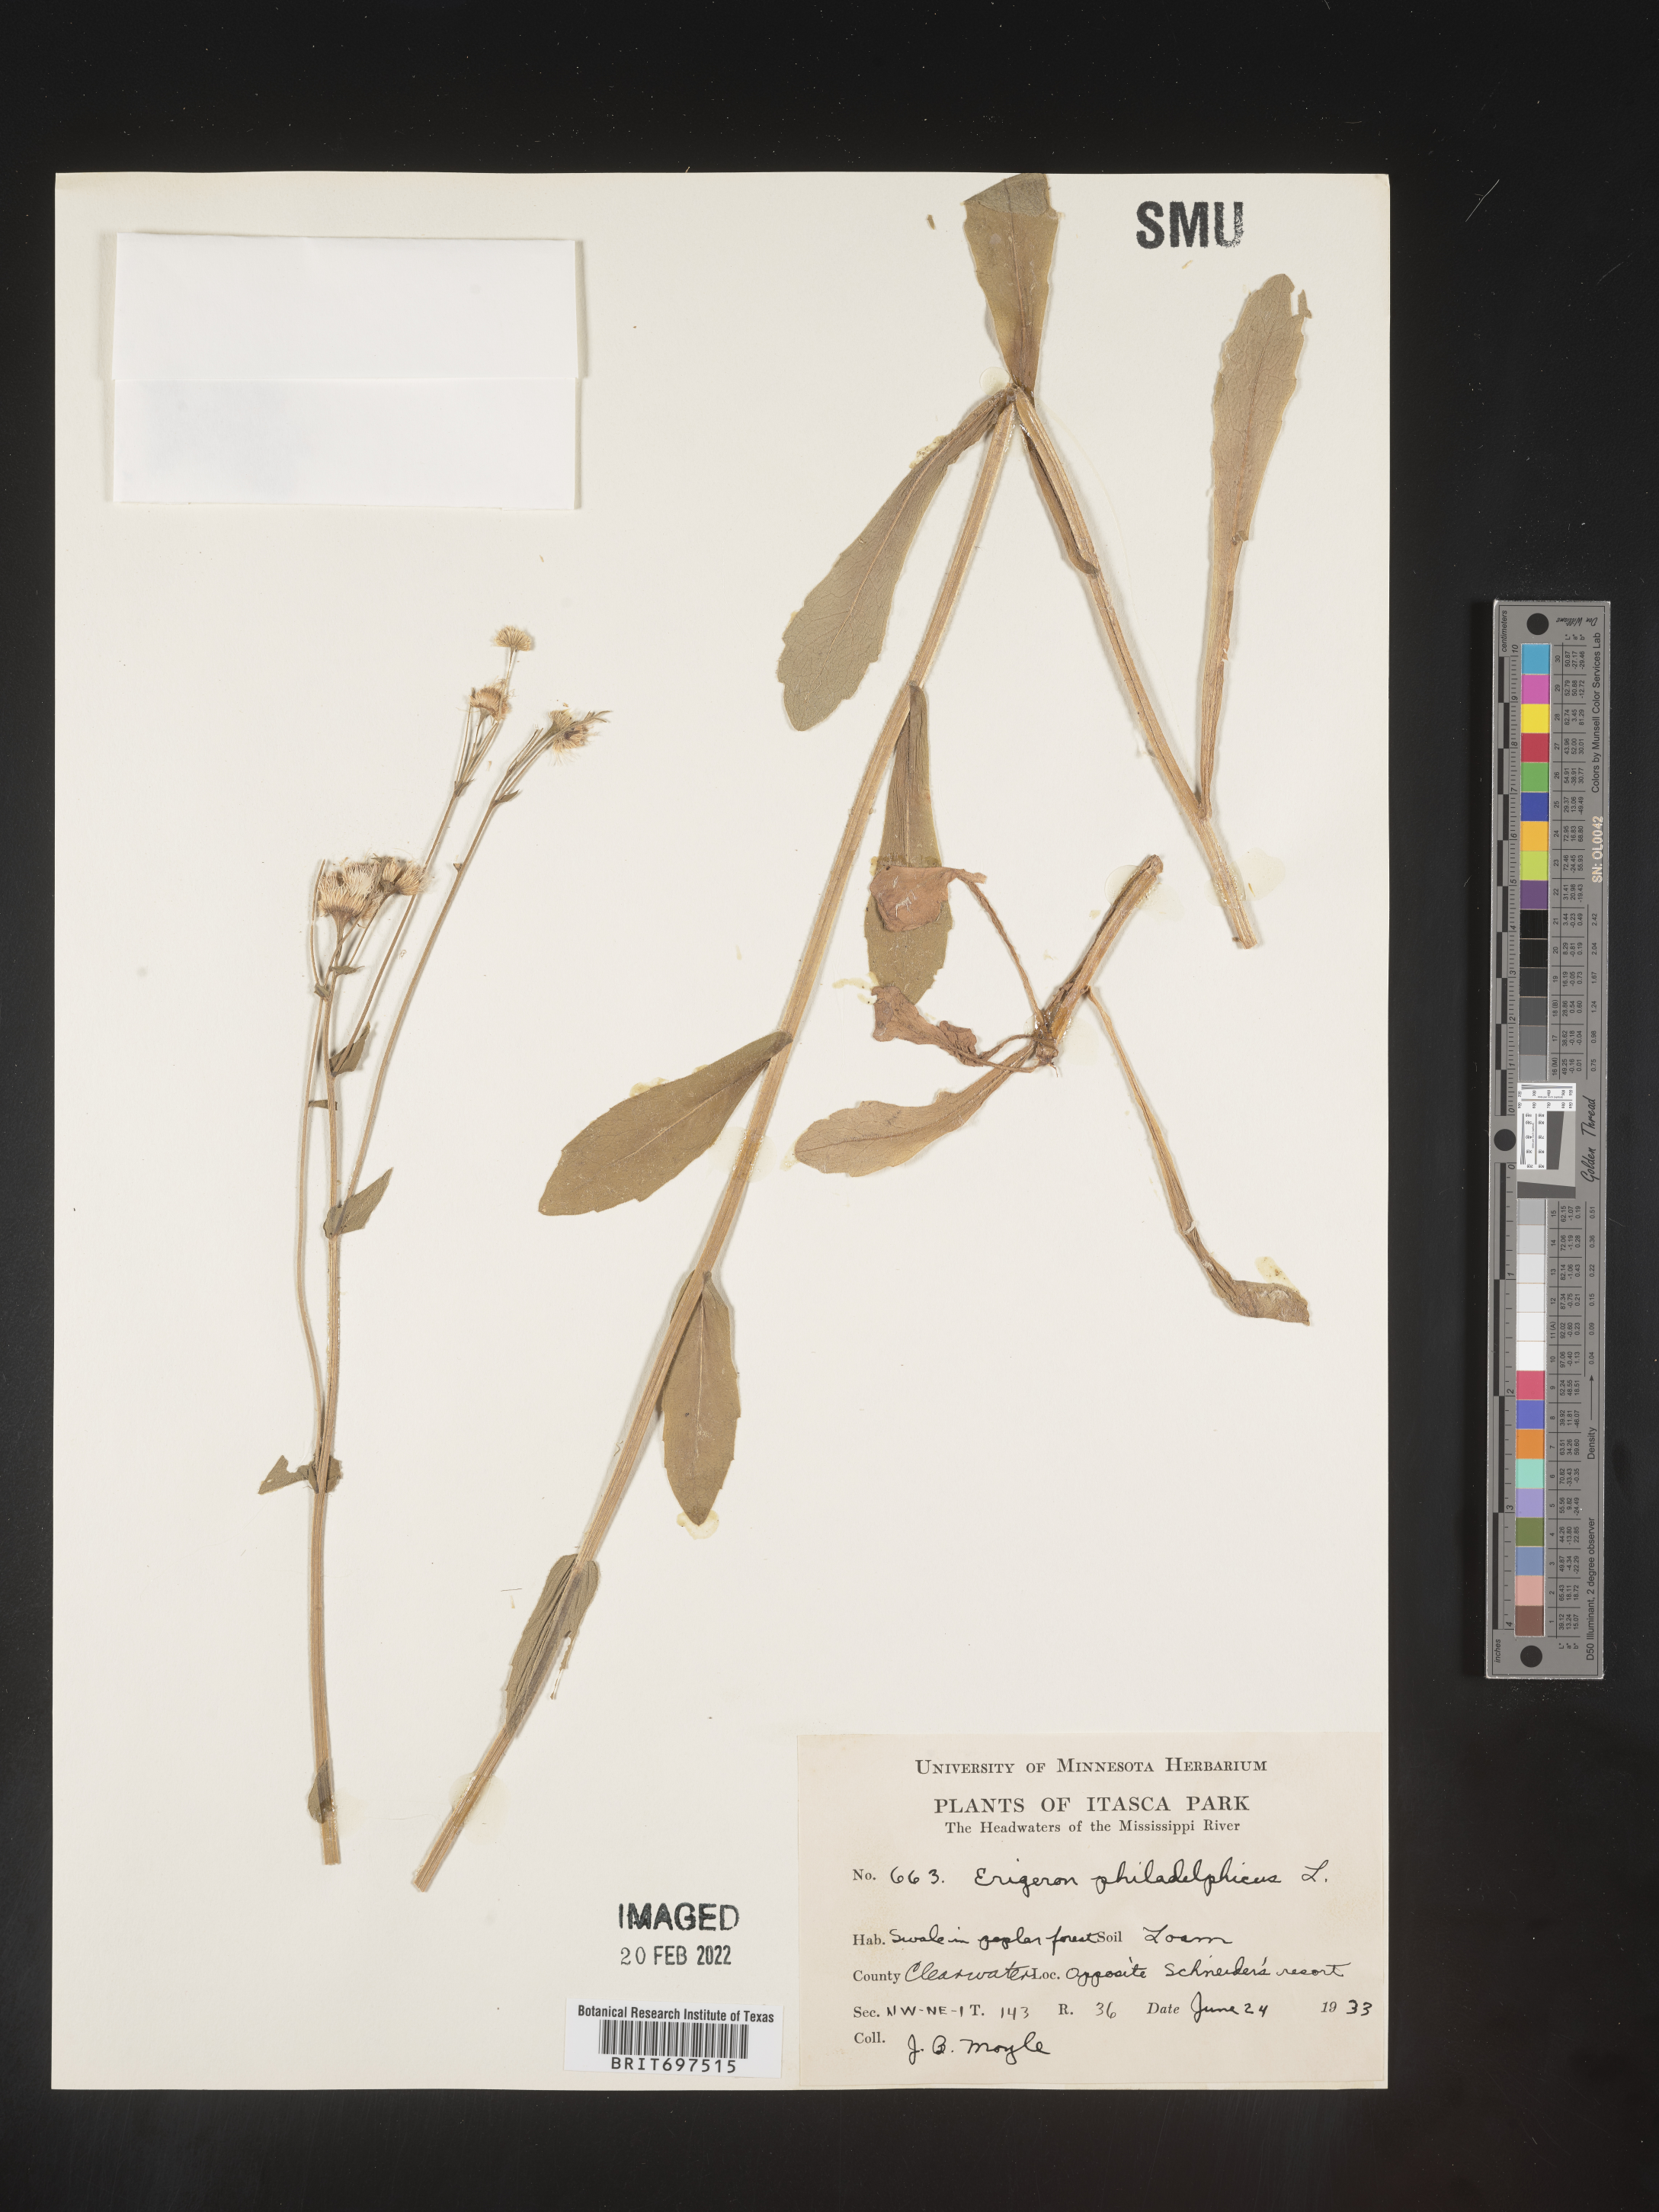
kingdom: Plantae
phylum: Tracheophyta
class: Magnoliopsida
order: Asterales
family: Asteraceae
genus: Erigeron
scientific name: Erigeron philadelphicus
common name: Robin's-plantain
